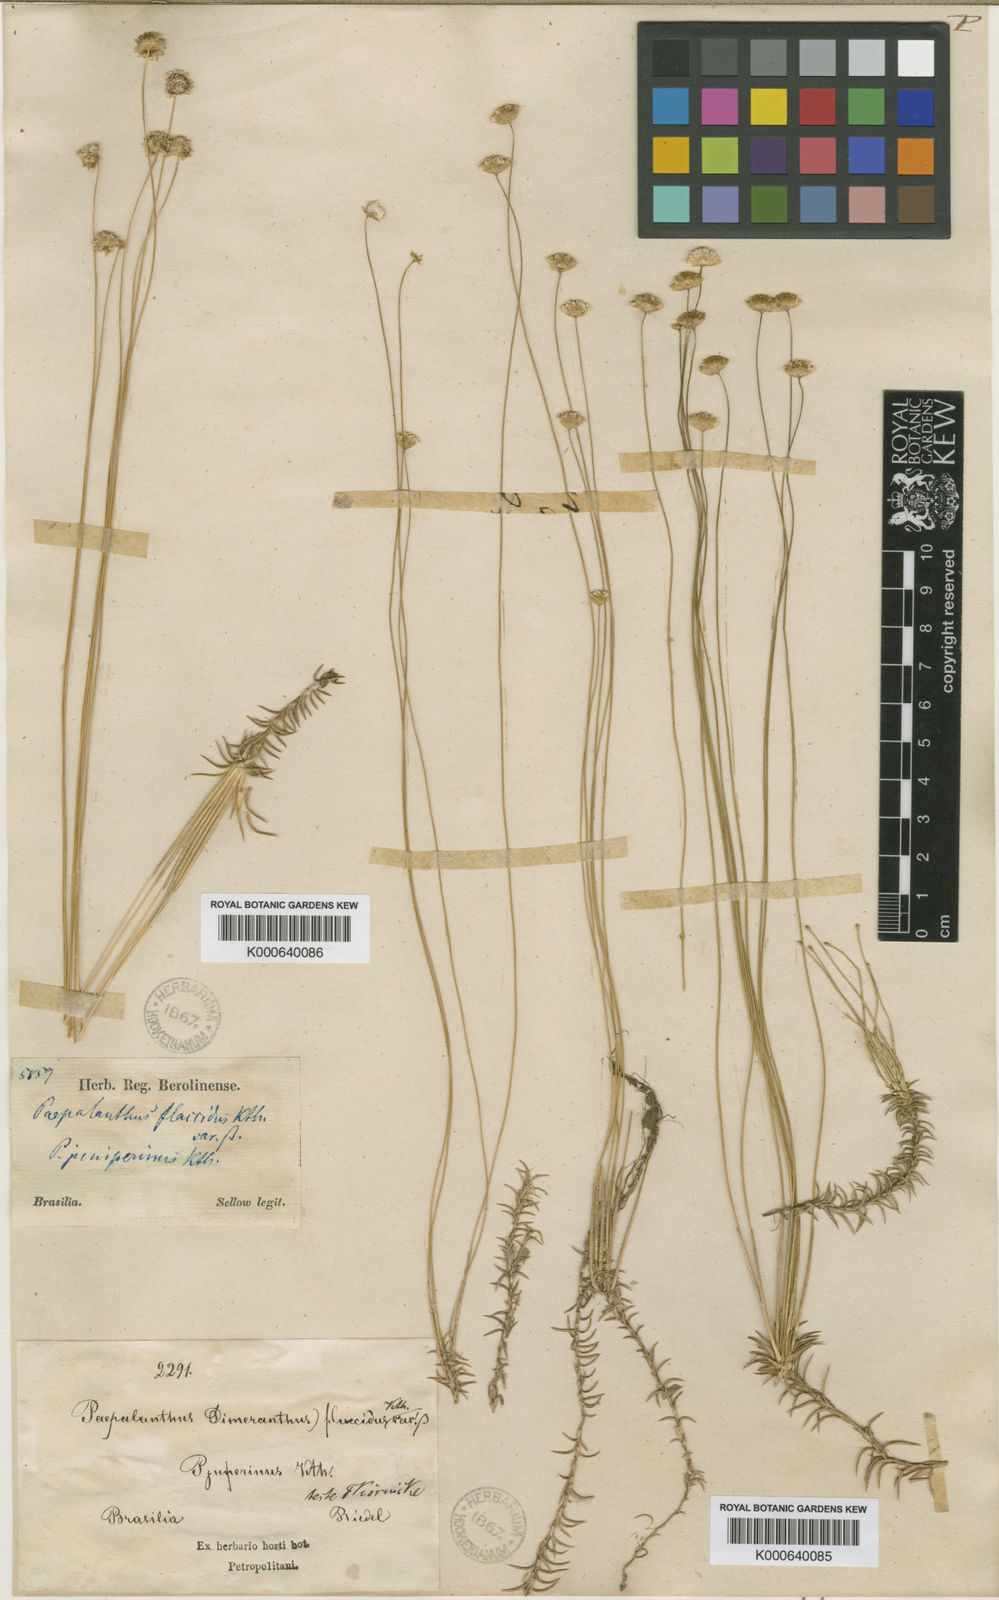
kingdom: Plantae
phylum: Tracheophyta
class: Liliopsida
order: Poales
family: Eriocaulaceae
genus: Paepalanthus
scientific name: Paepalanthus flaccidus
